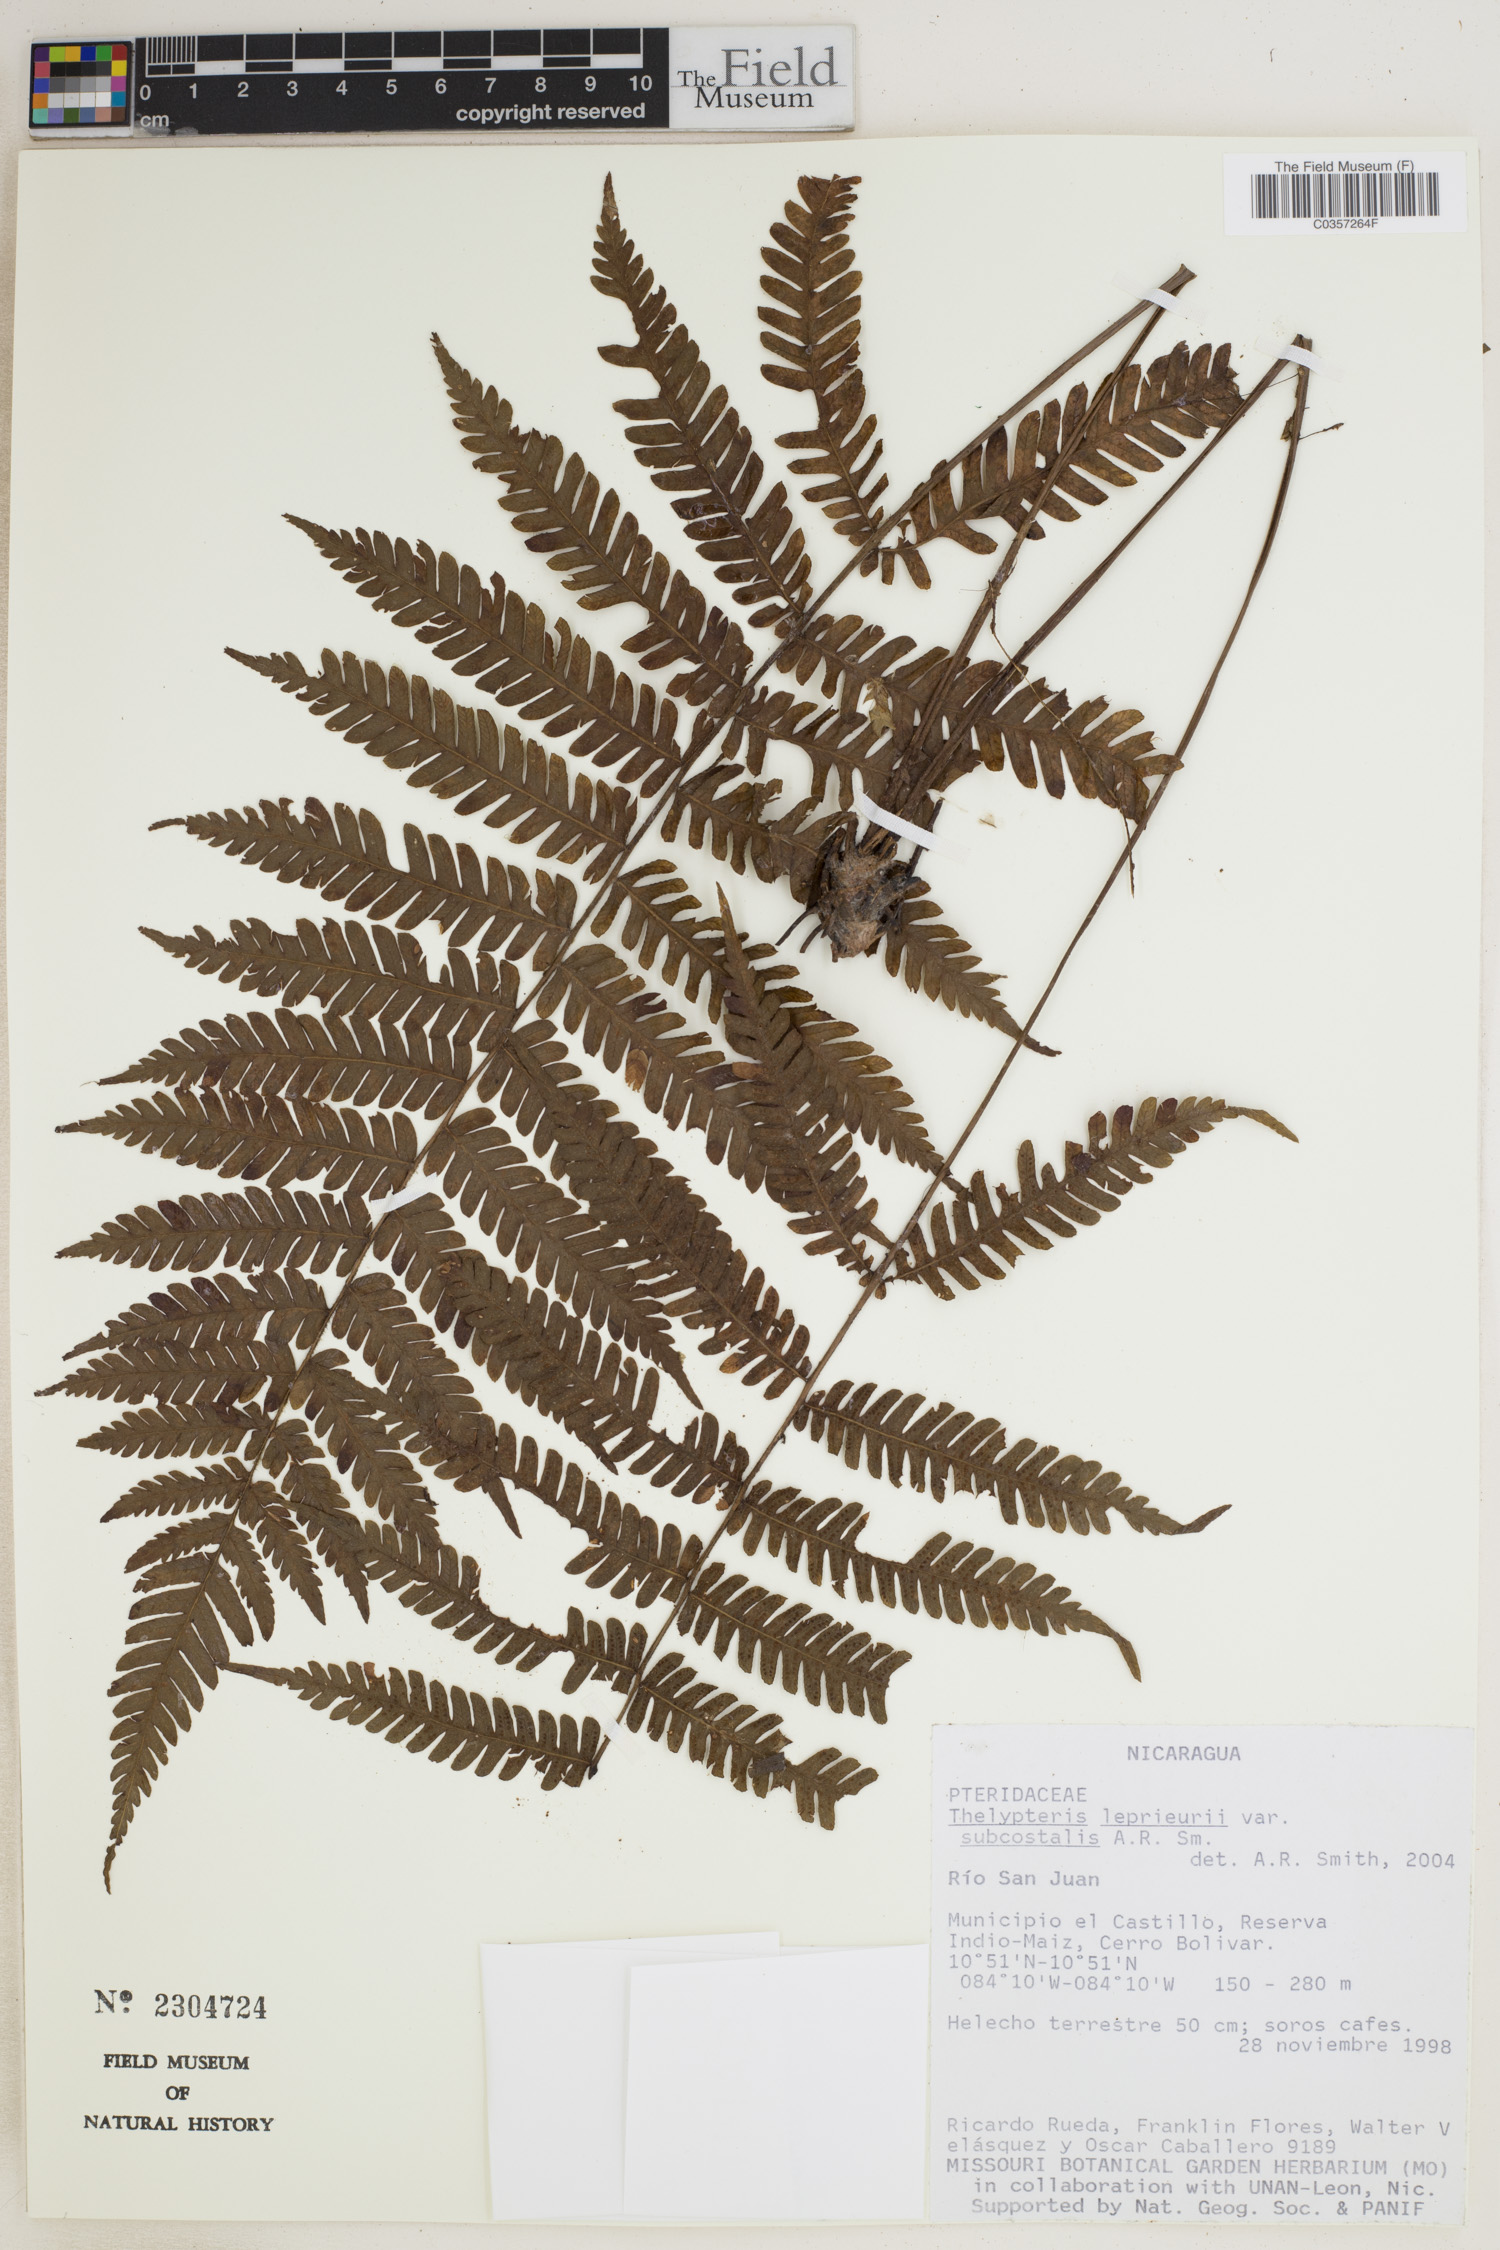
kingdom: Plantae
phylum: Tracheophyta
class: Polypodiopsida
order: Polypodiales
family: Thelypteridaceae
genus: Steiropteris
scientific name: Steiropteris leprieurii
